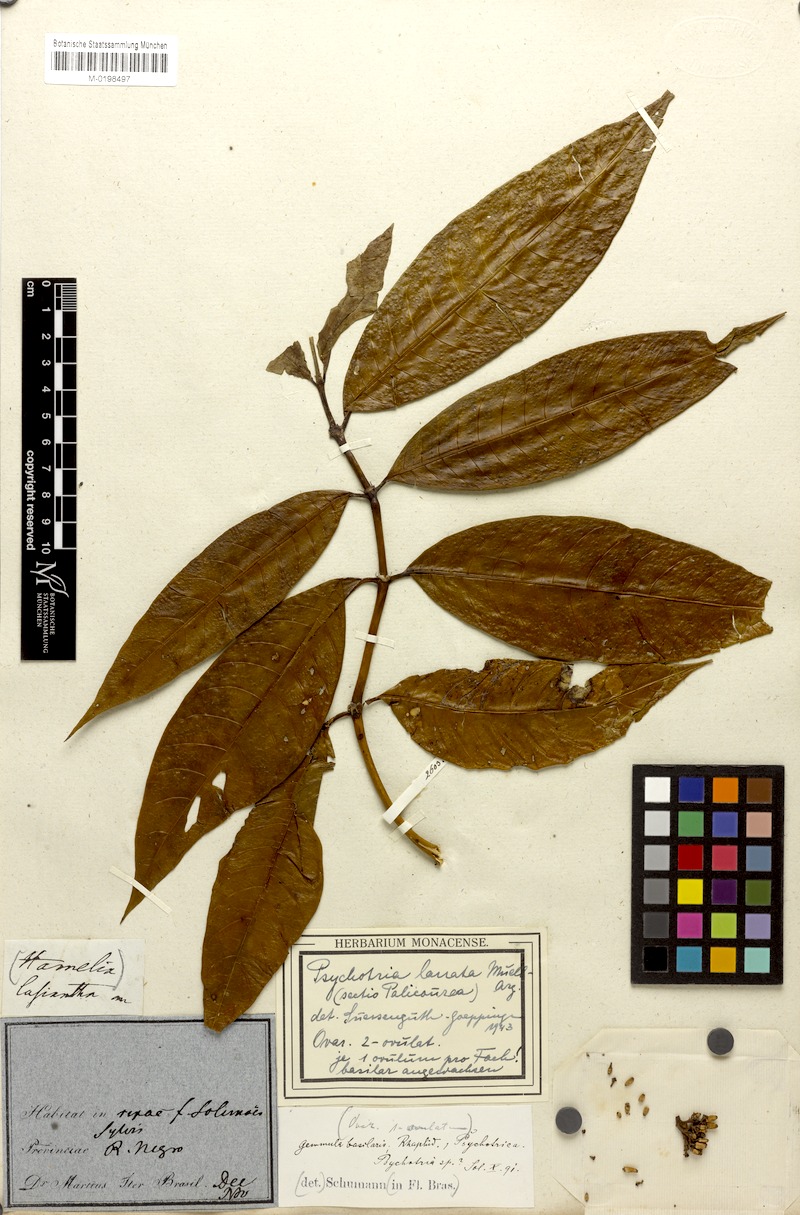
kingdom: Plantae
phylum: Tracheophyta
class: Magnoliopsida
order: Gentianales
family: Rubiaceae
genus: Palicourea
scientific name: Palicourea nitidella
